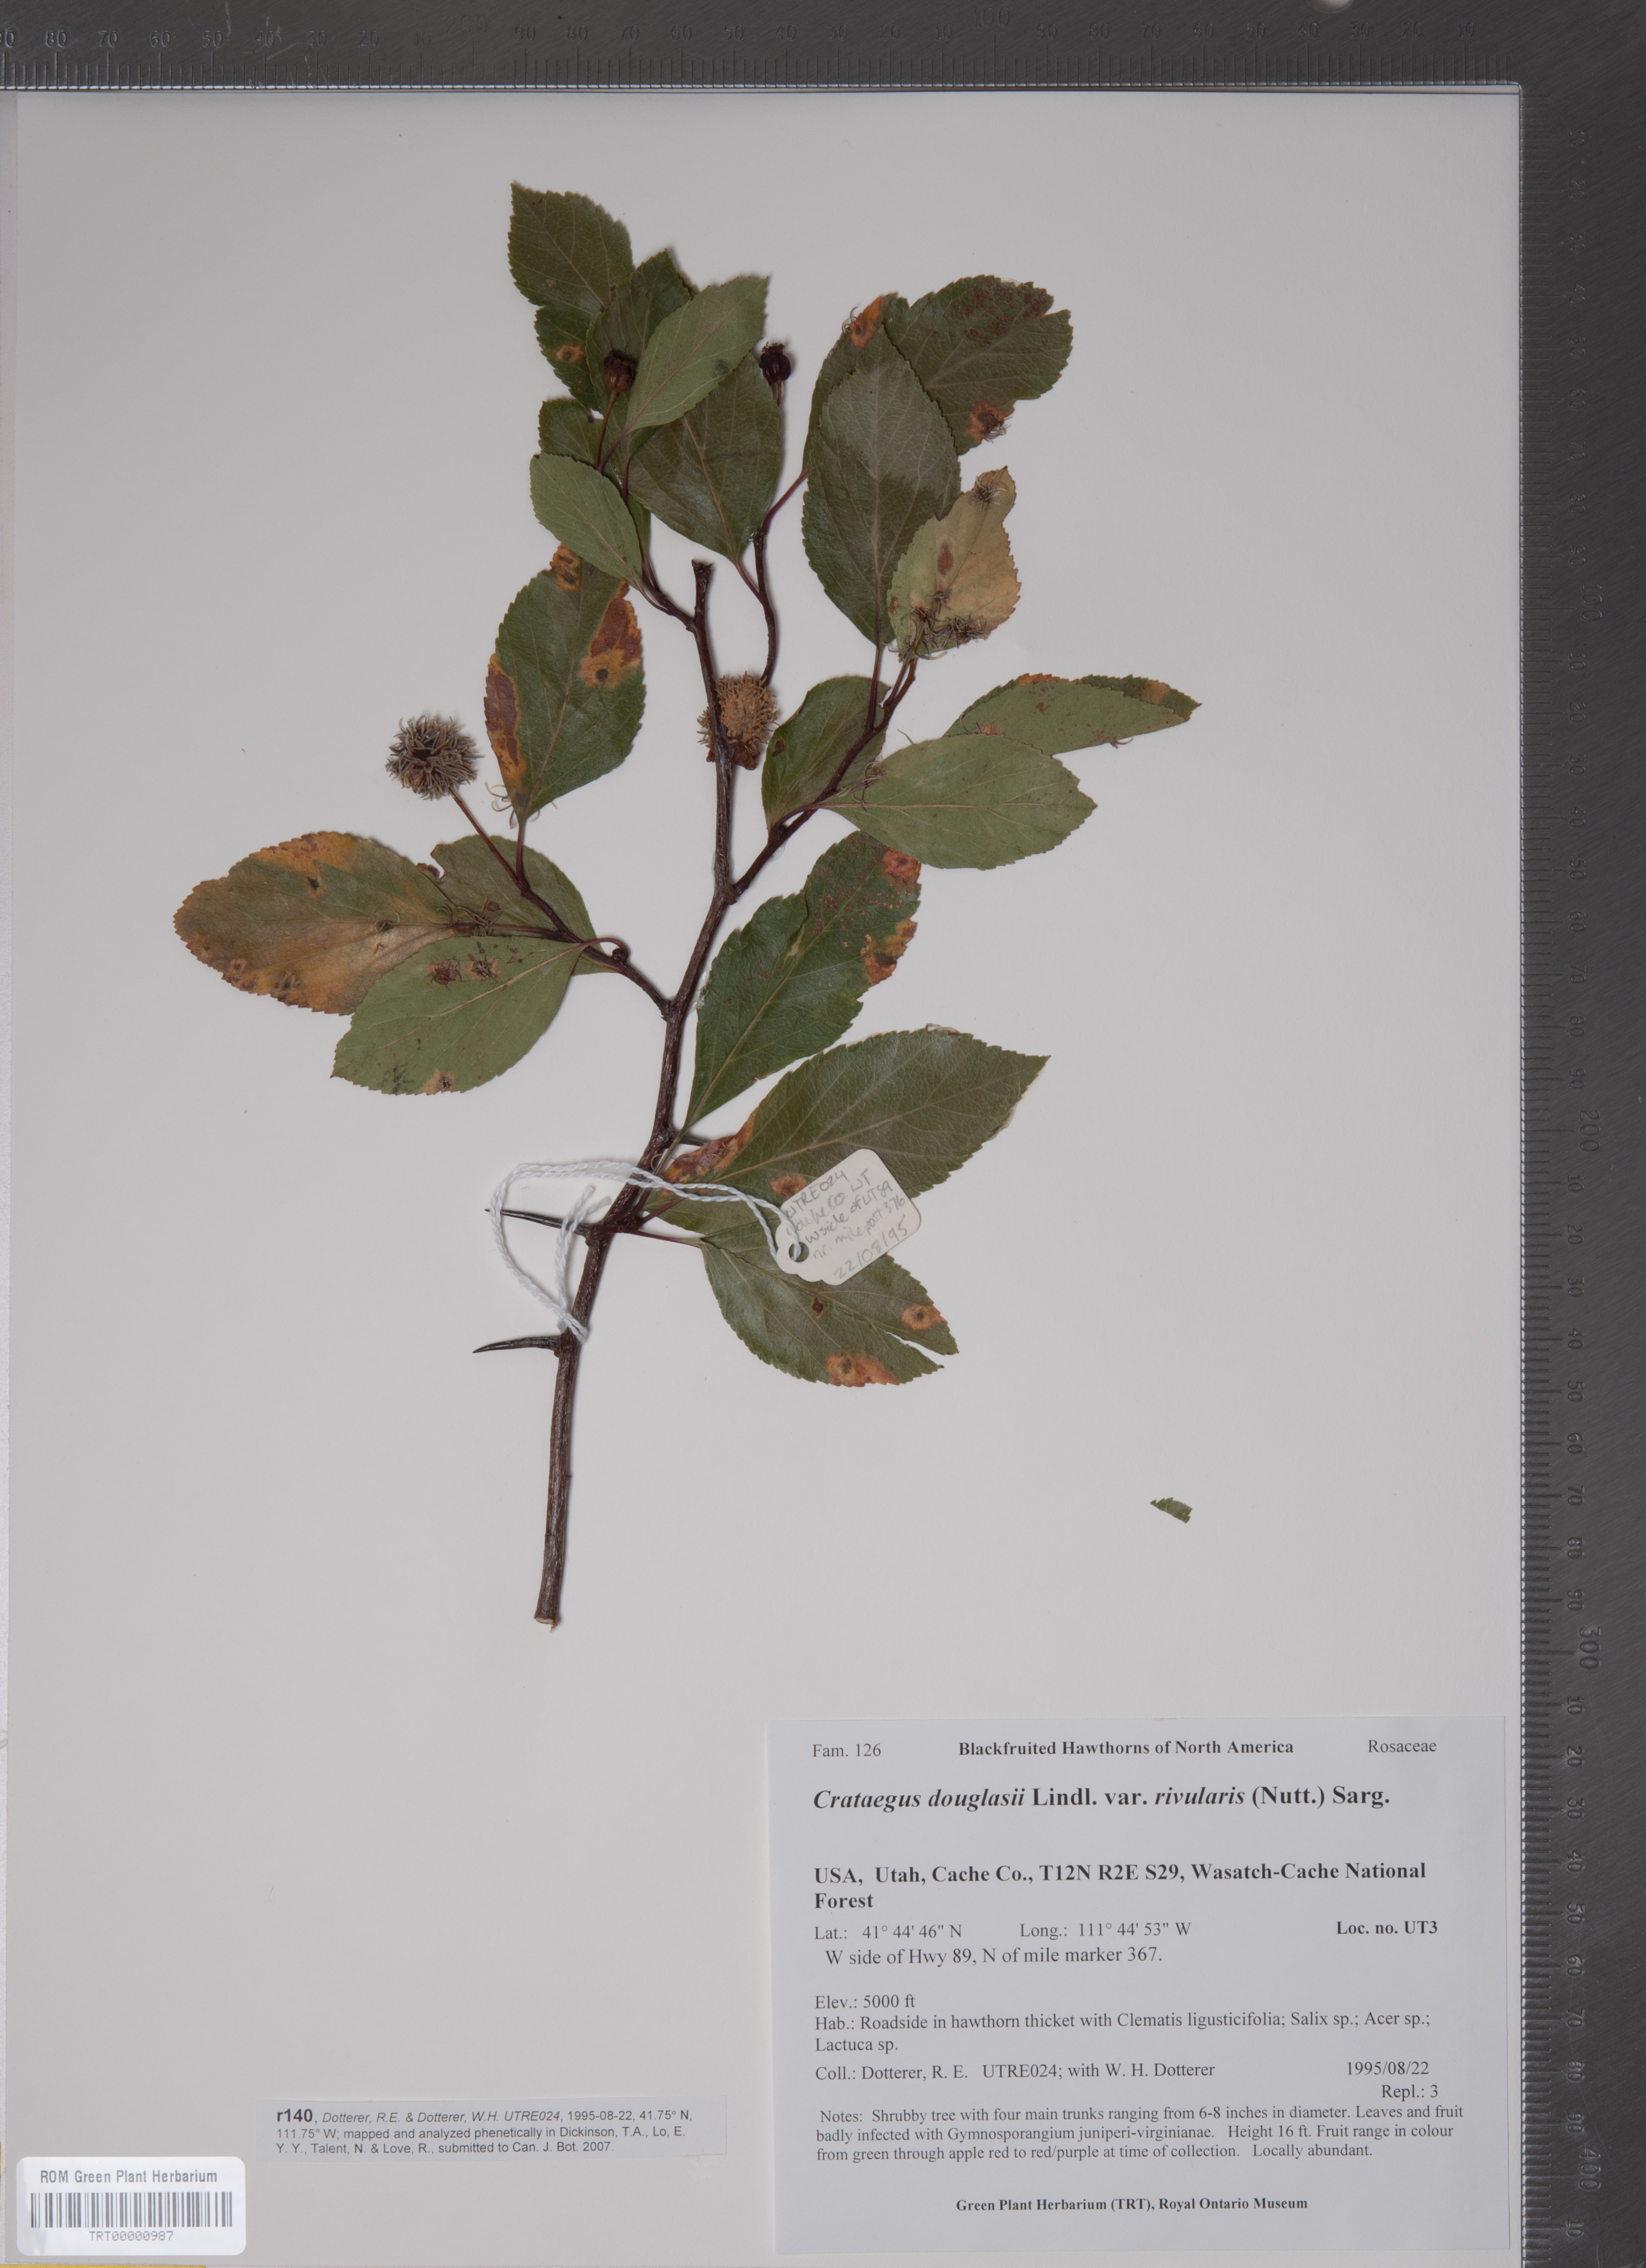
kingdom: Plantae
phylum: Tracheophyta
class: Magnoliopsida
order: Rosales
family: Rosaceae
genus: Crataegus
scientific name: Crataegus rivularis
